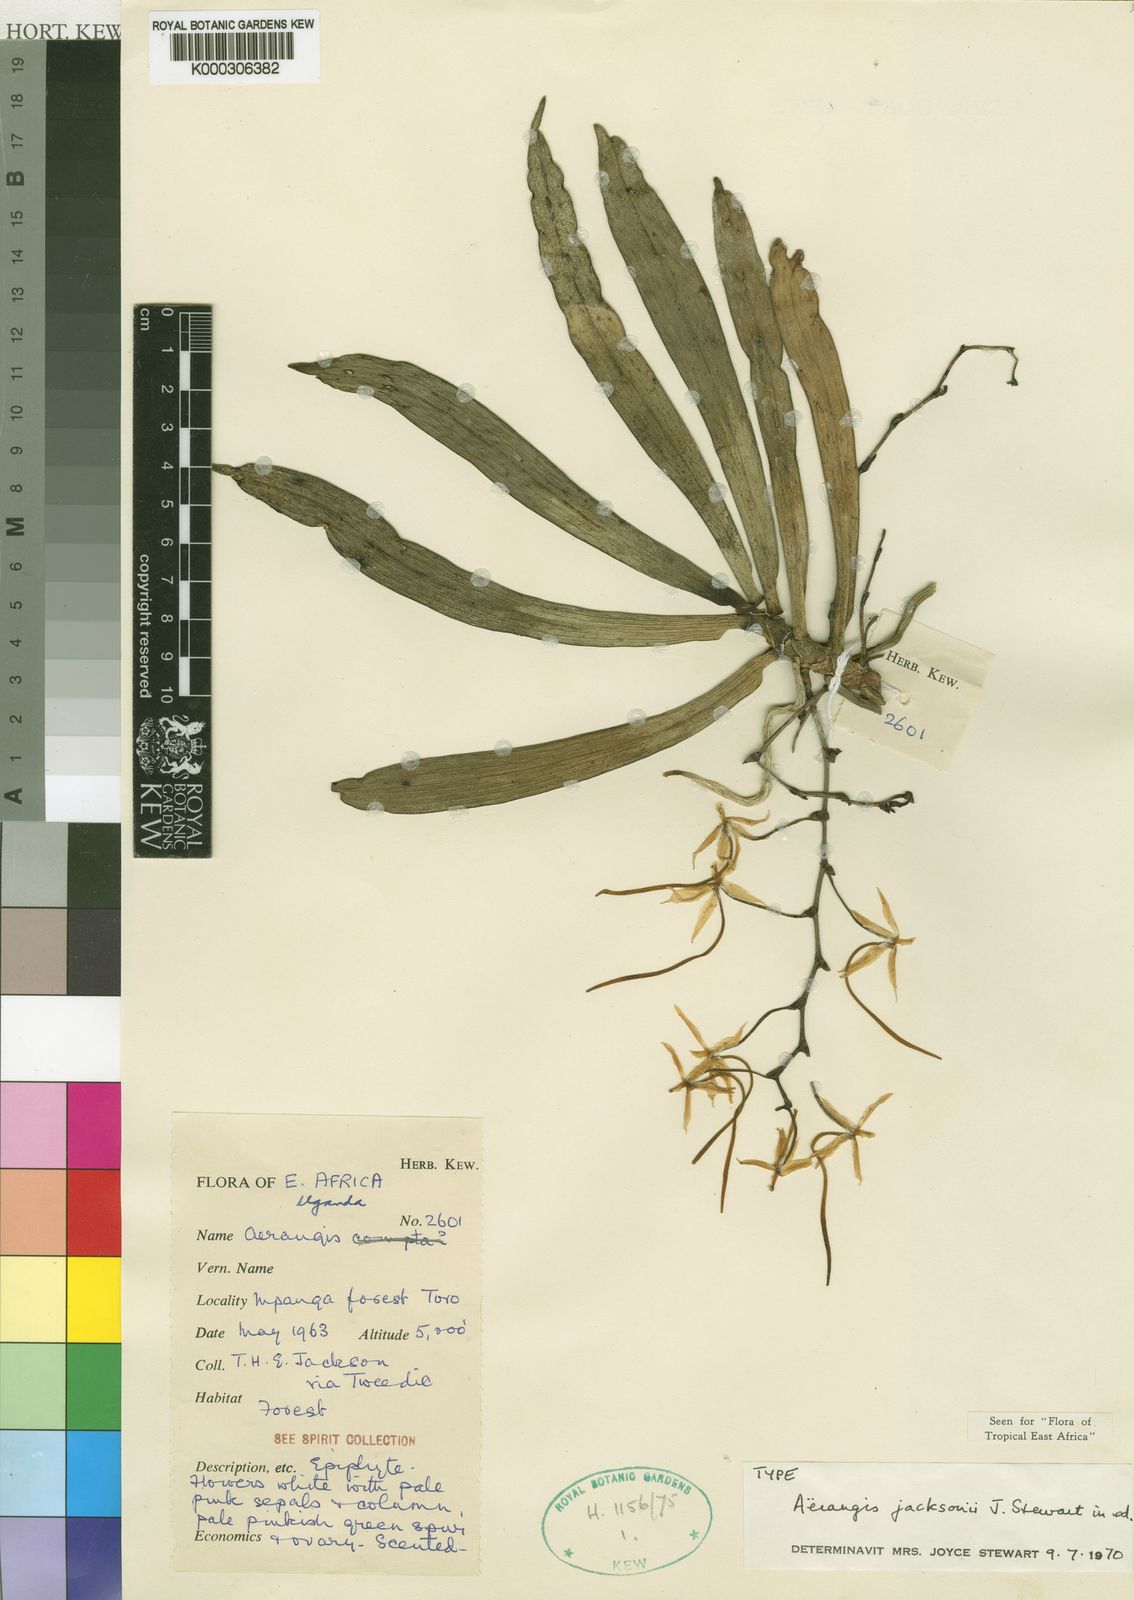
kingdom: Plantae
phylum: Tracheophyta
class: Liliopsida
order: Asparagales
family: Orchidaceae
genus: Aerangis
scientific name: Aerangis jacksonii
